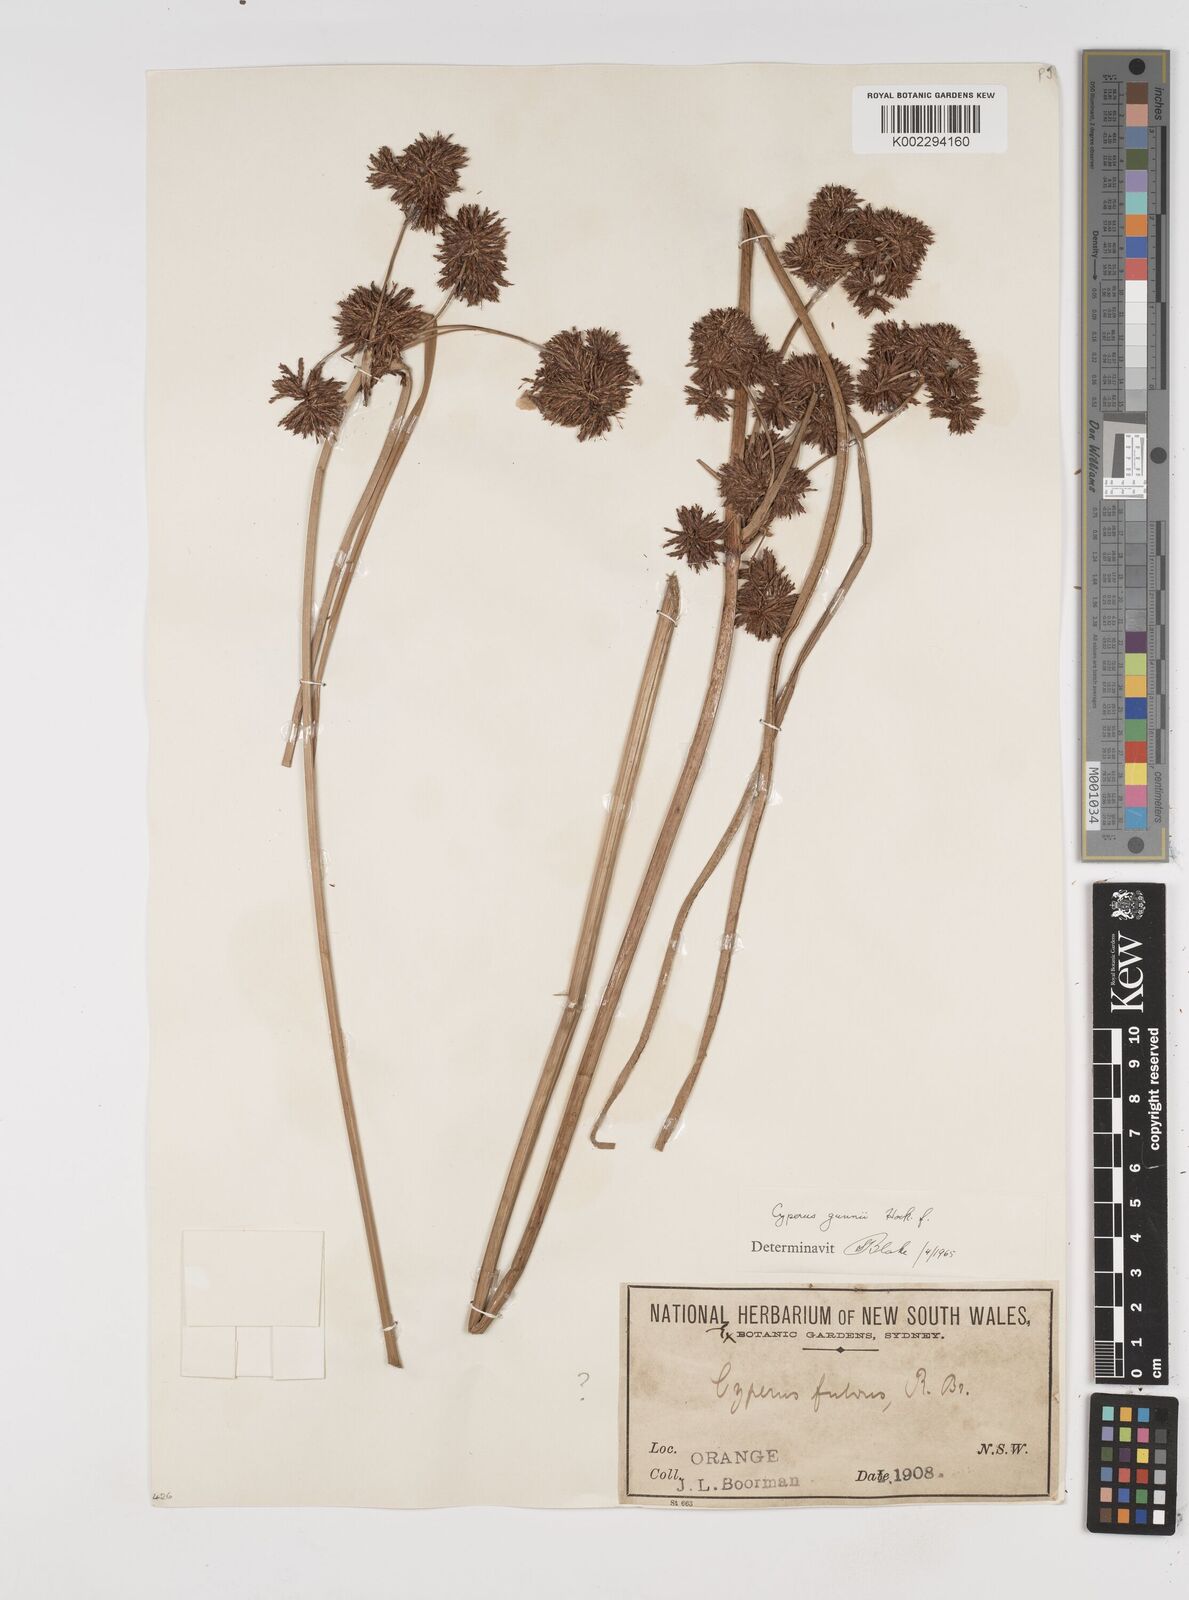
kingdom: Plantae
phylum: Tracheophyta
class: Liliopsida
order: Poales
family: Cyperaceae
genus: Cyperus
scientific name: Cyperus gunnii
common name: Flecked flat-sedge
